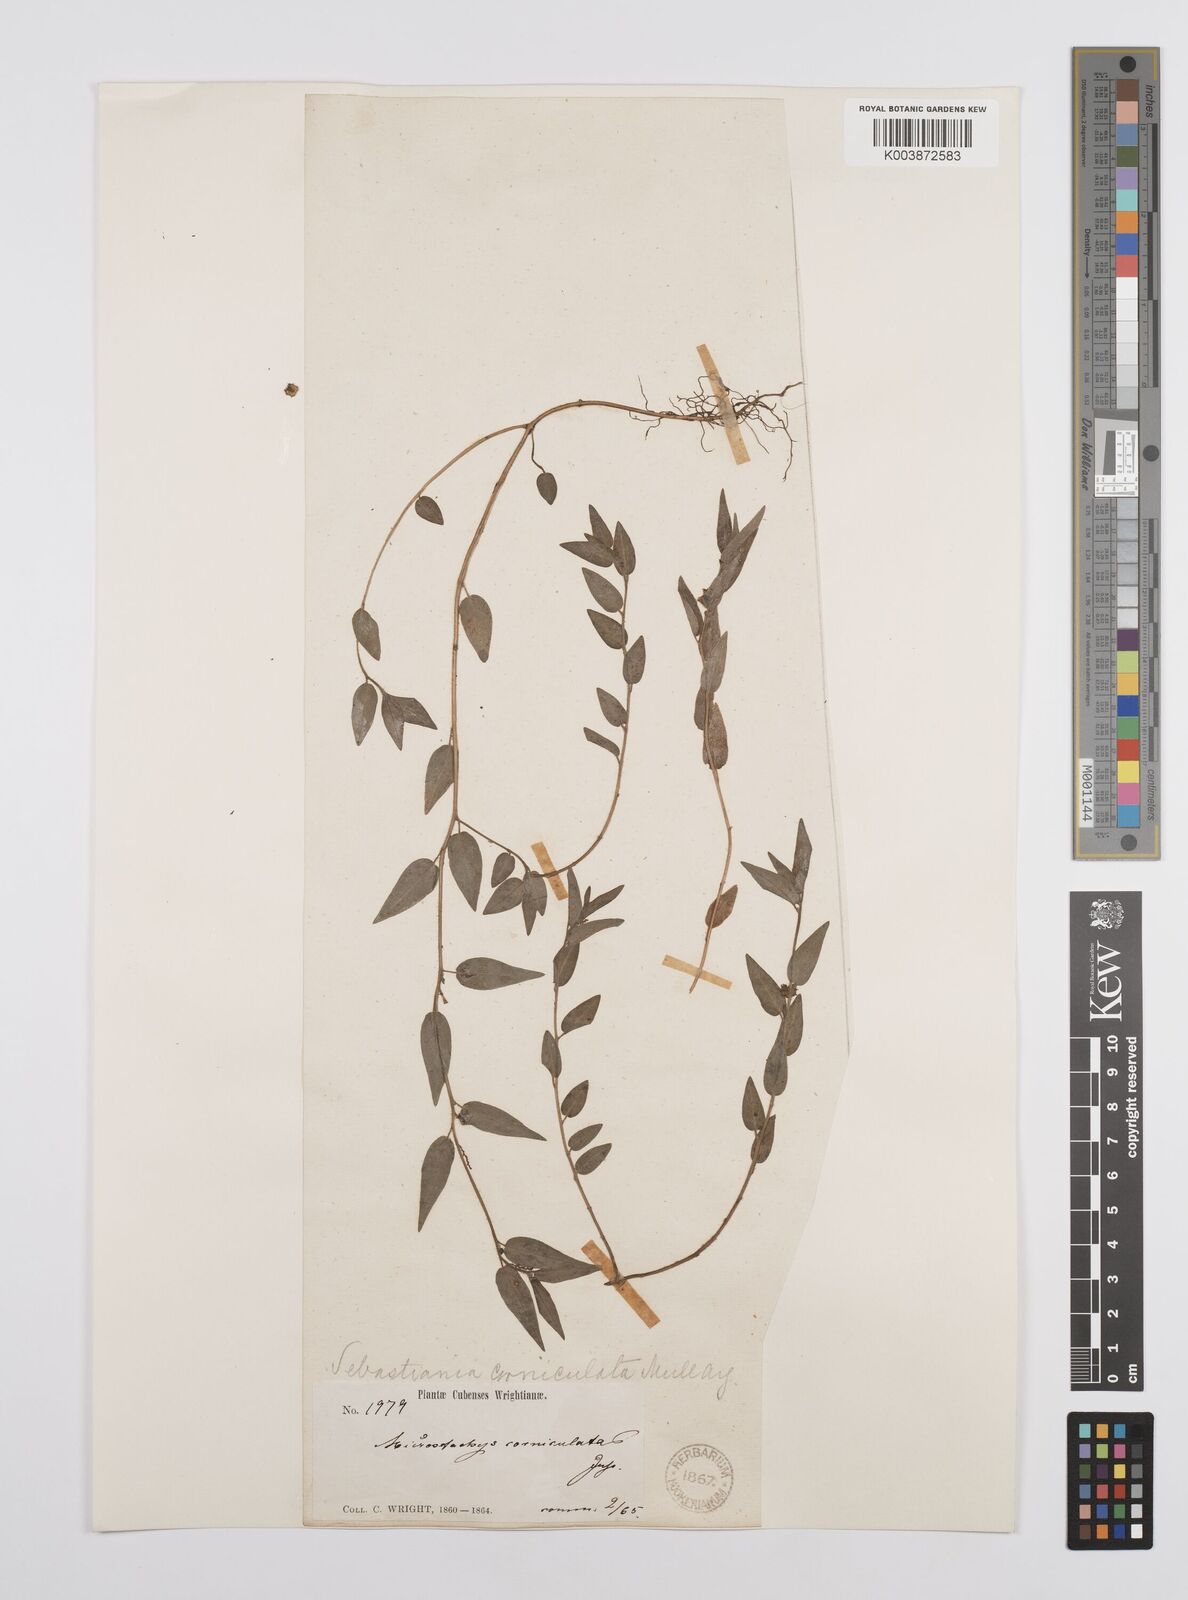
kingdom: Plantae
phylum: Tracheophyta
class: Magnoliopsida
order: Malpighiales
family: Euphorbiaceae
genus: Microstachys
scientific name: Microstachys corniculata
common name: Hato tejas
